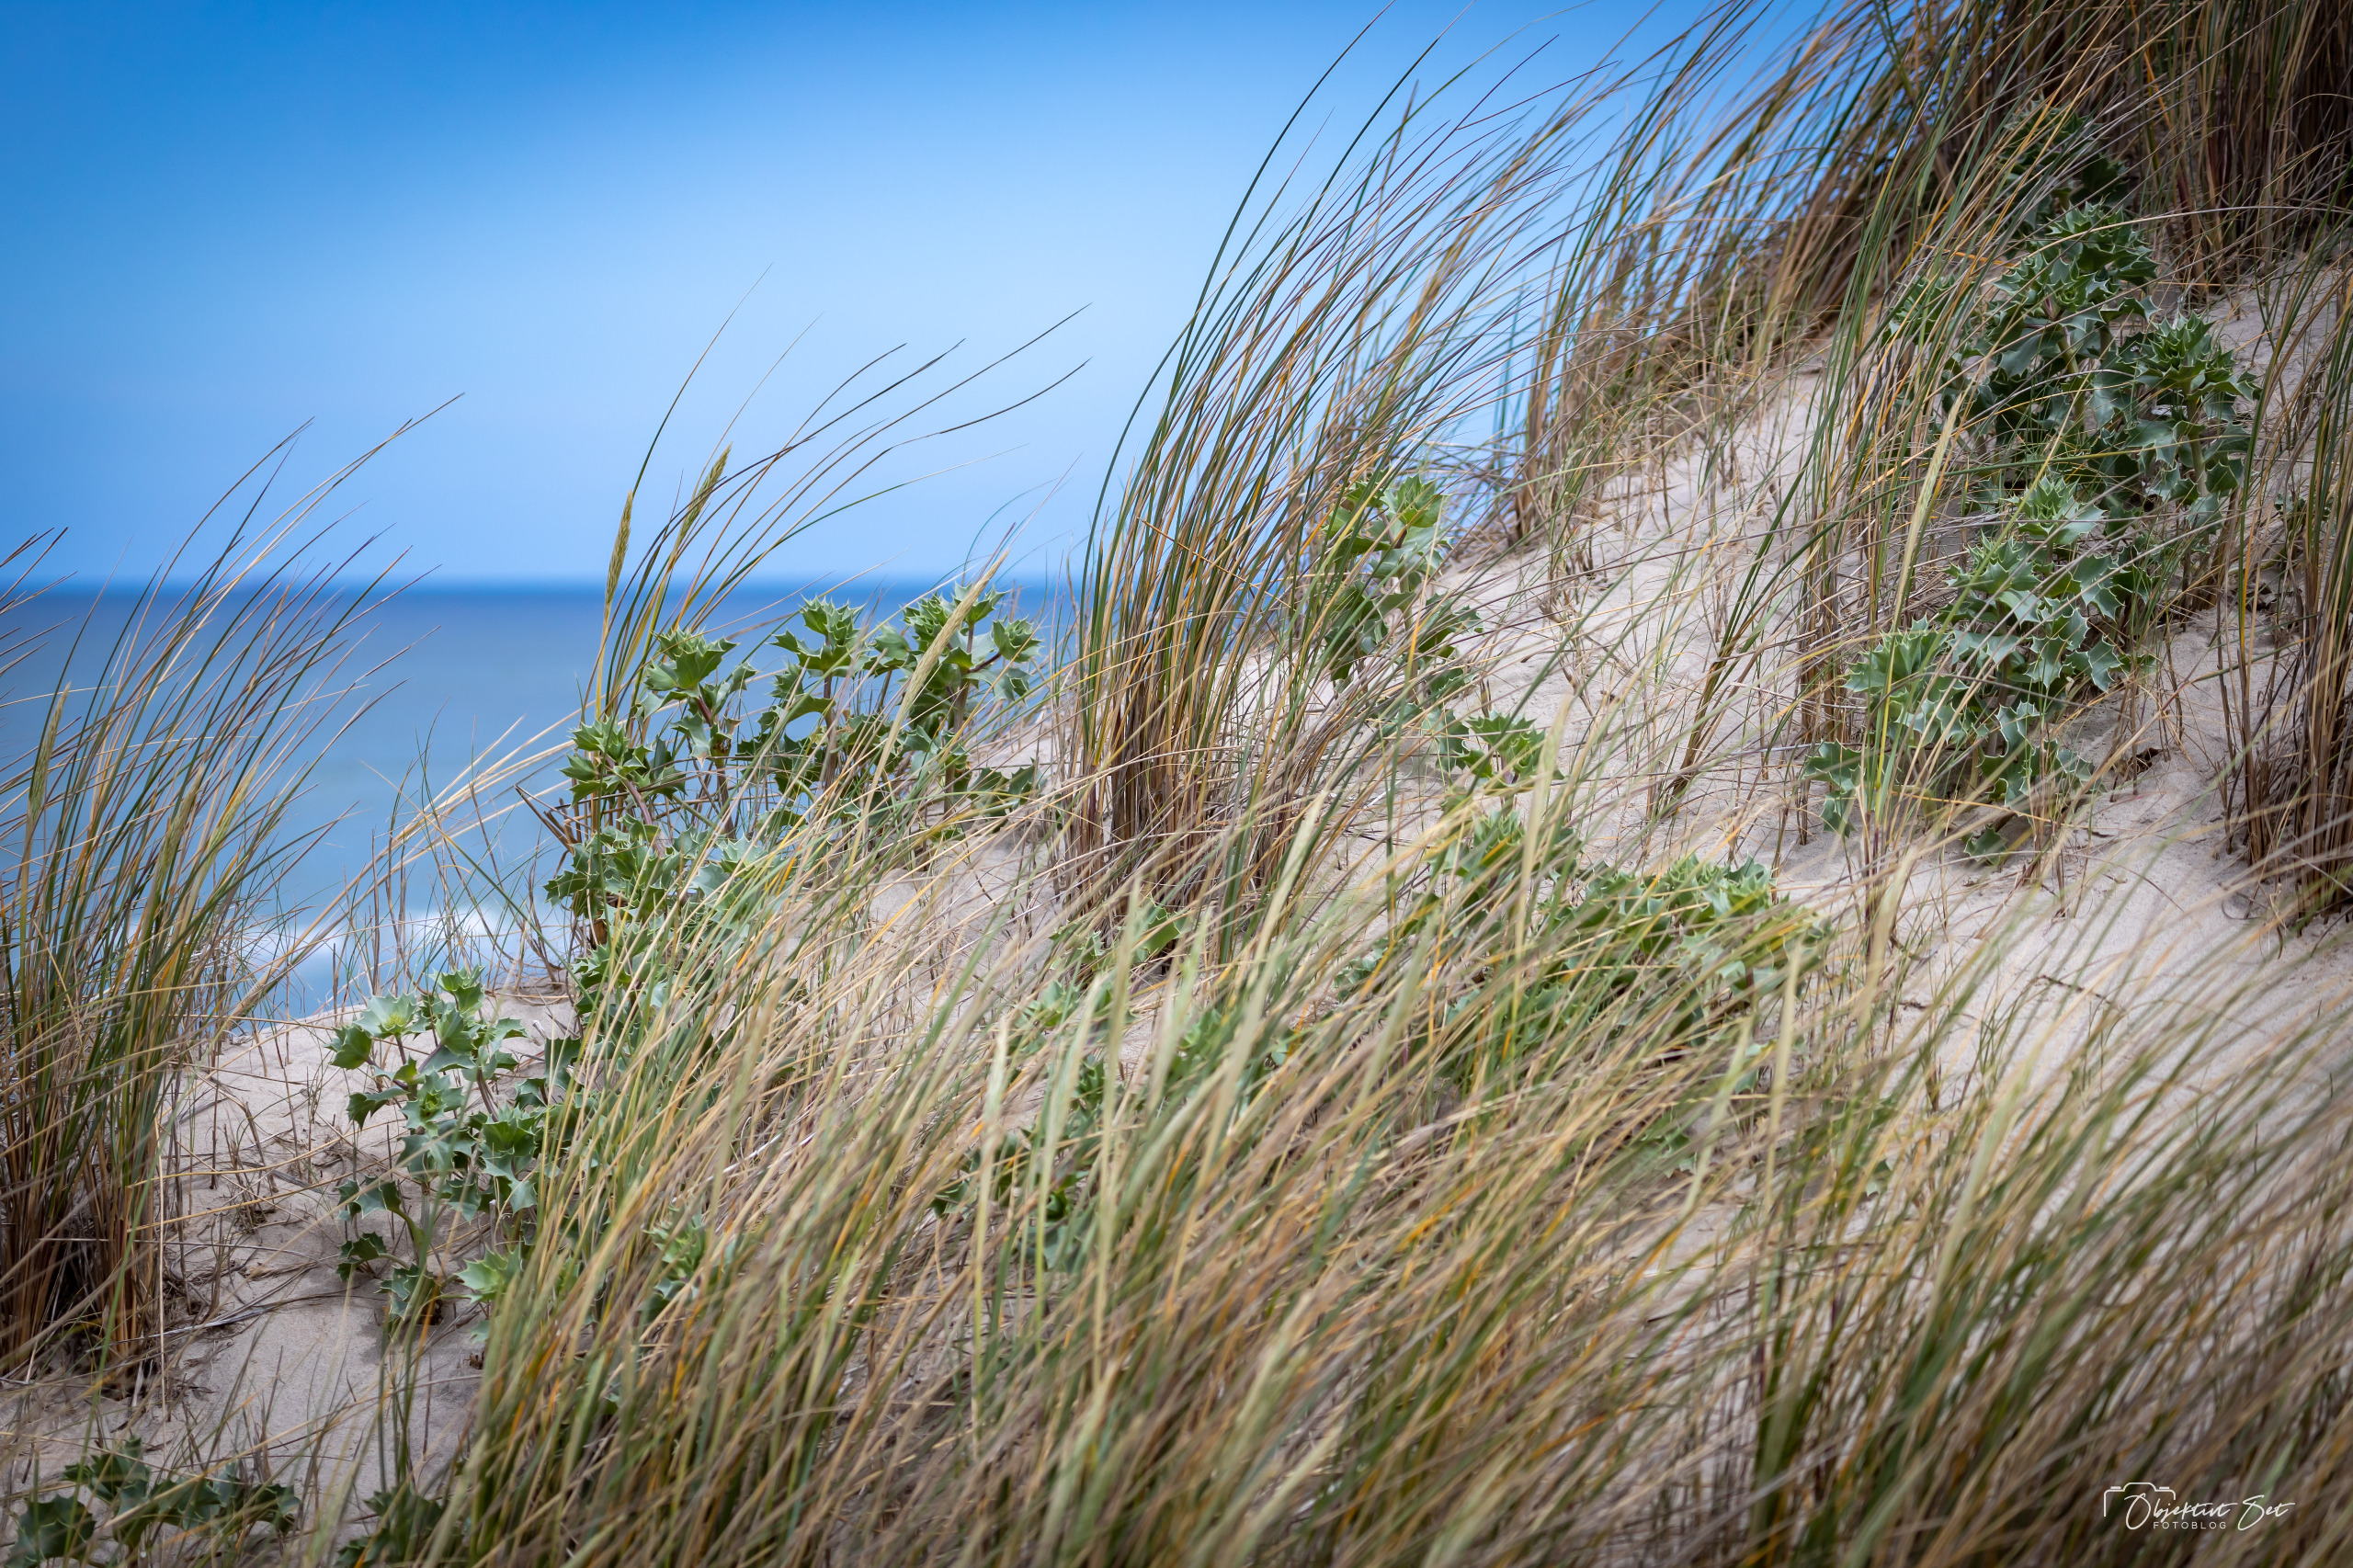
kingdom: Plantae
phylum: Tracheophyta
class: Magnoliopsida
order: Apiales
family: Apiaceae
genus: Eryngium
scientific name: Eryngium maritimum
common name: Strand-mandstro
